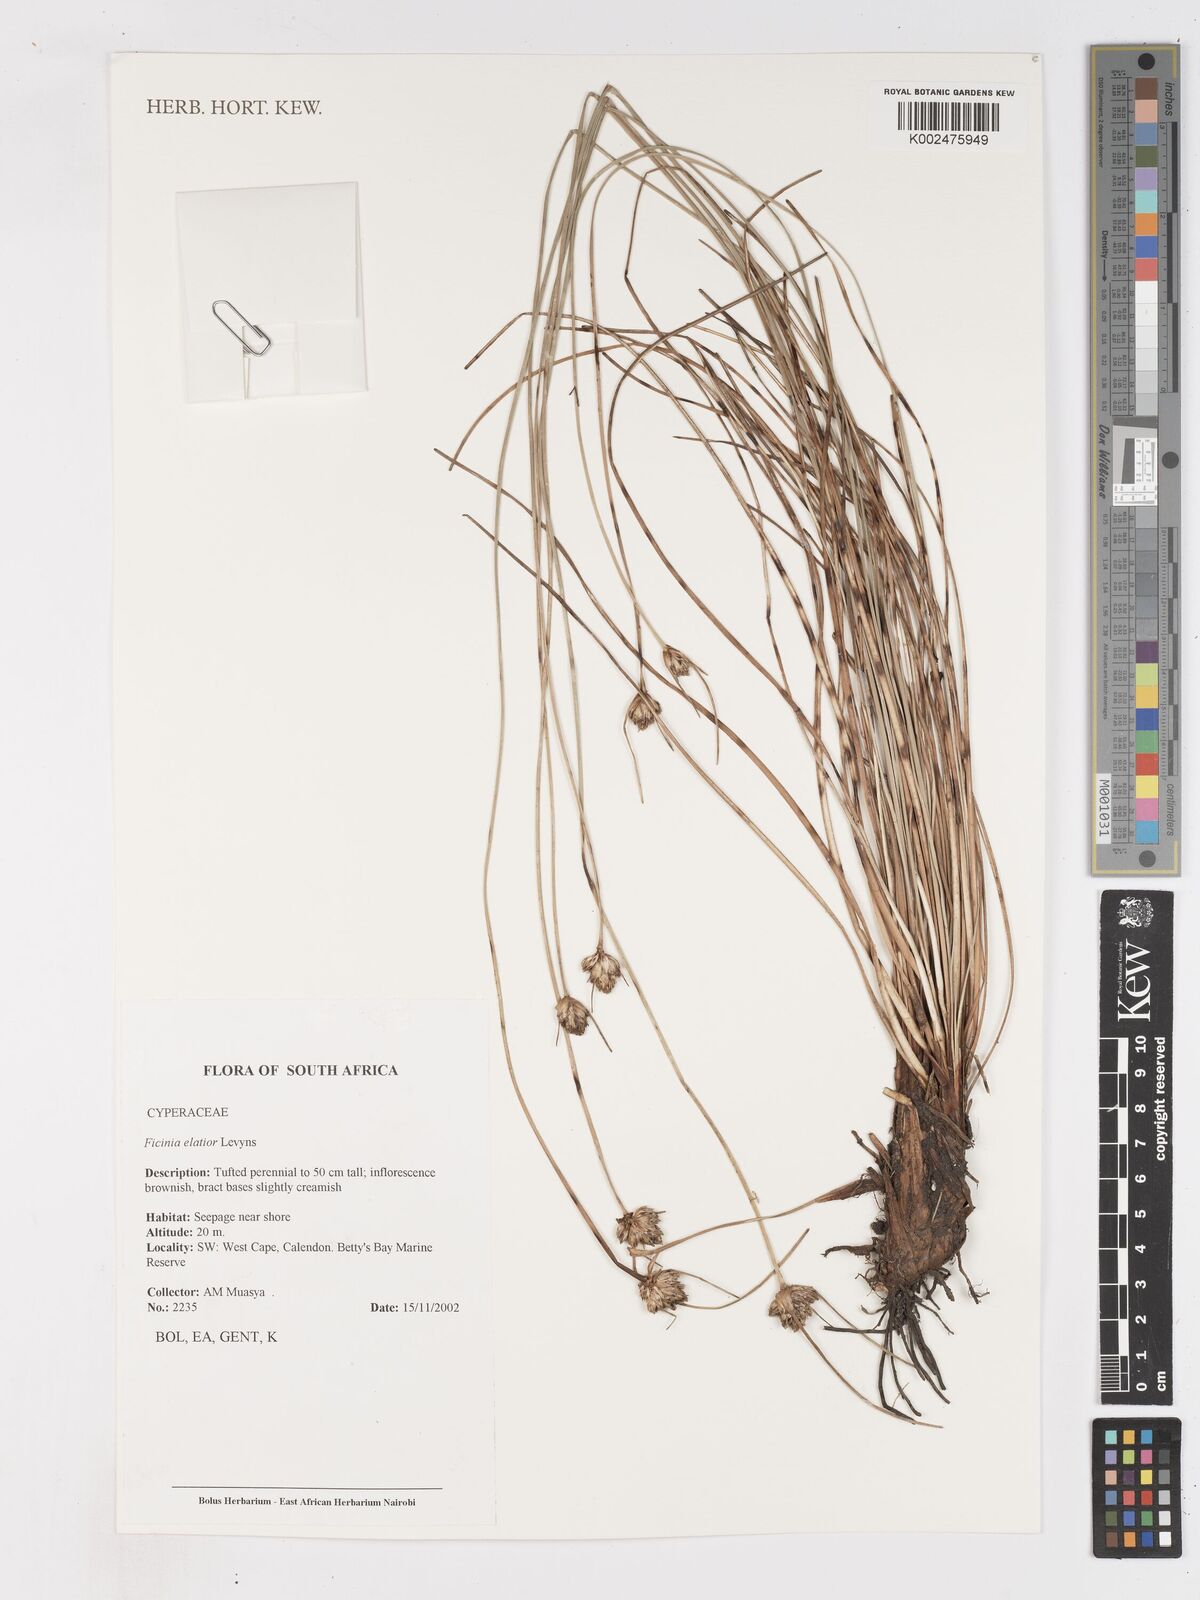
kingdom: Plantae
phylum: Tracheophyta
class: Liliopsida
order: Poales
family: Cyperaceae
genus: Ficinia
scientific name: Ficinia elatior
